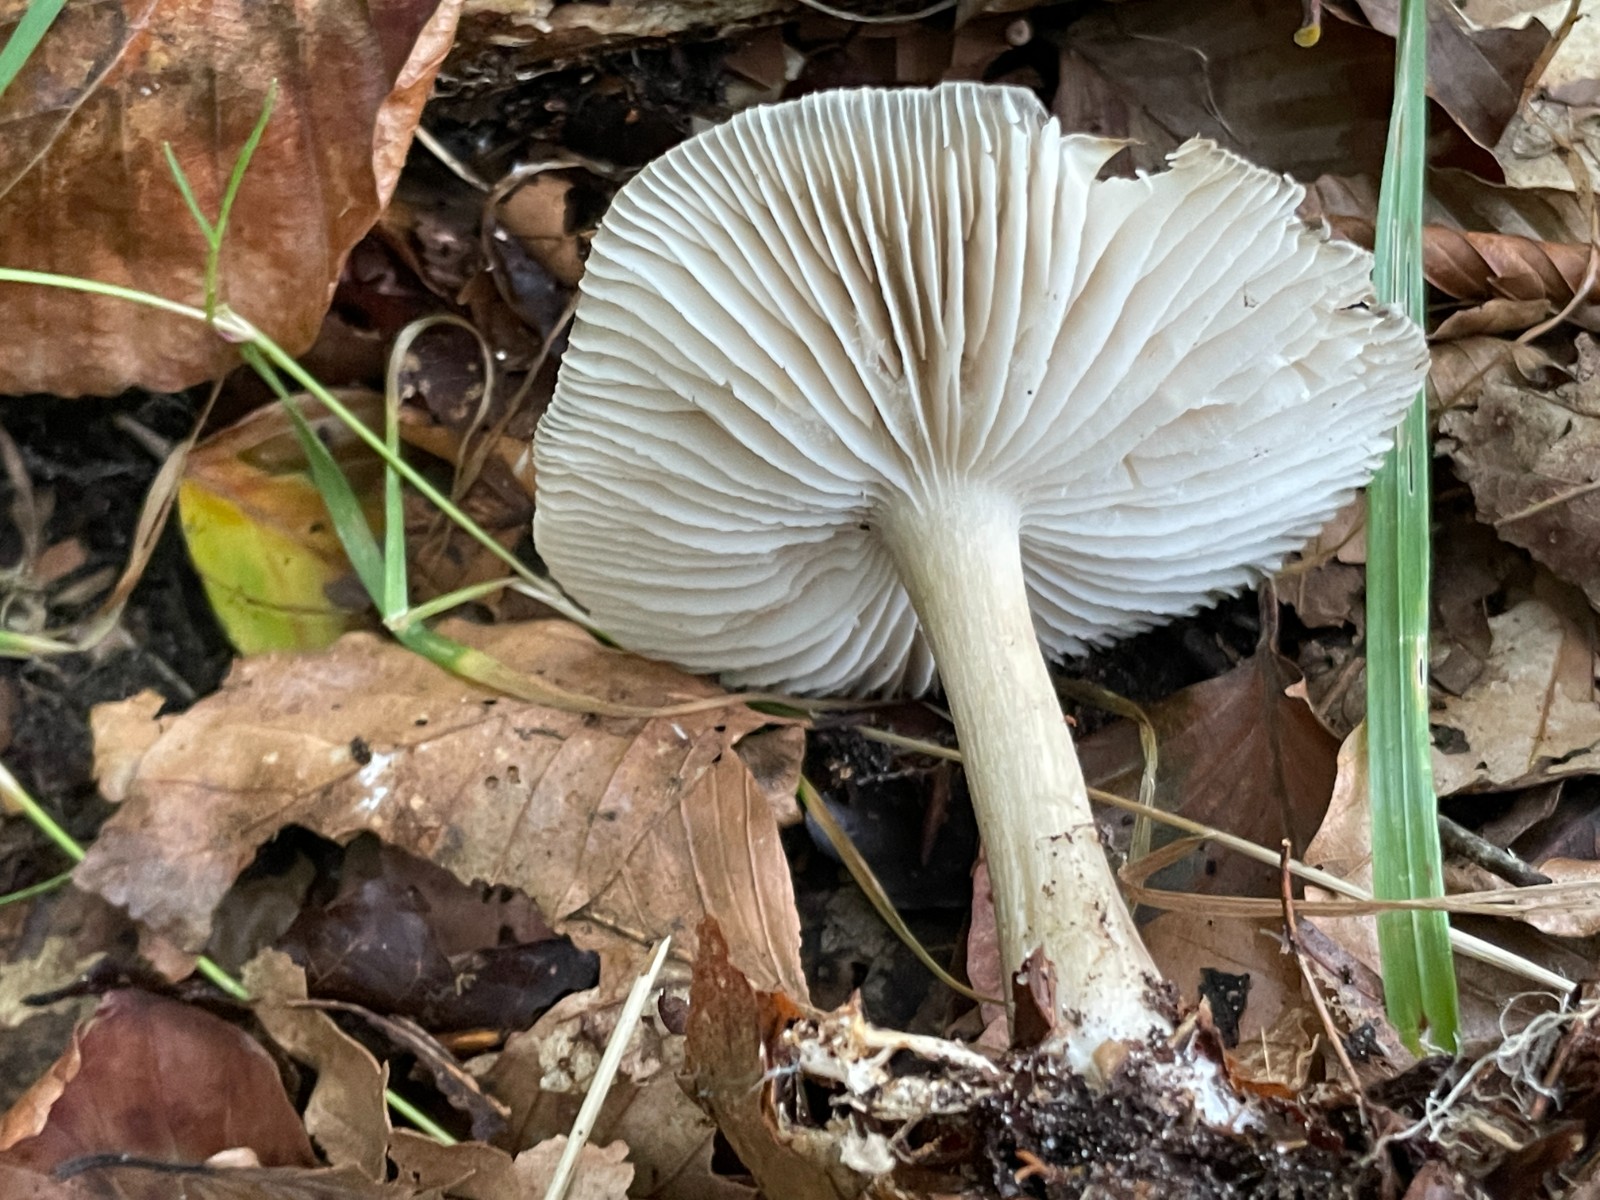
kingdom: Fungi
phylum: Basidiomycota
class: Agaricomycetes
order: Agaricales
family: Tricholomataceae
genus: Megacollybia
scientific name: Megacollybia platyphylla
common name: bredbladet væbnerhat
